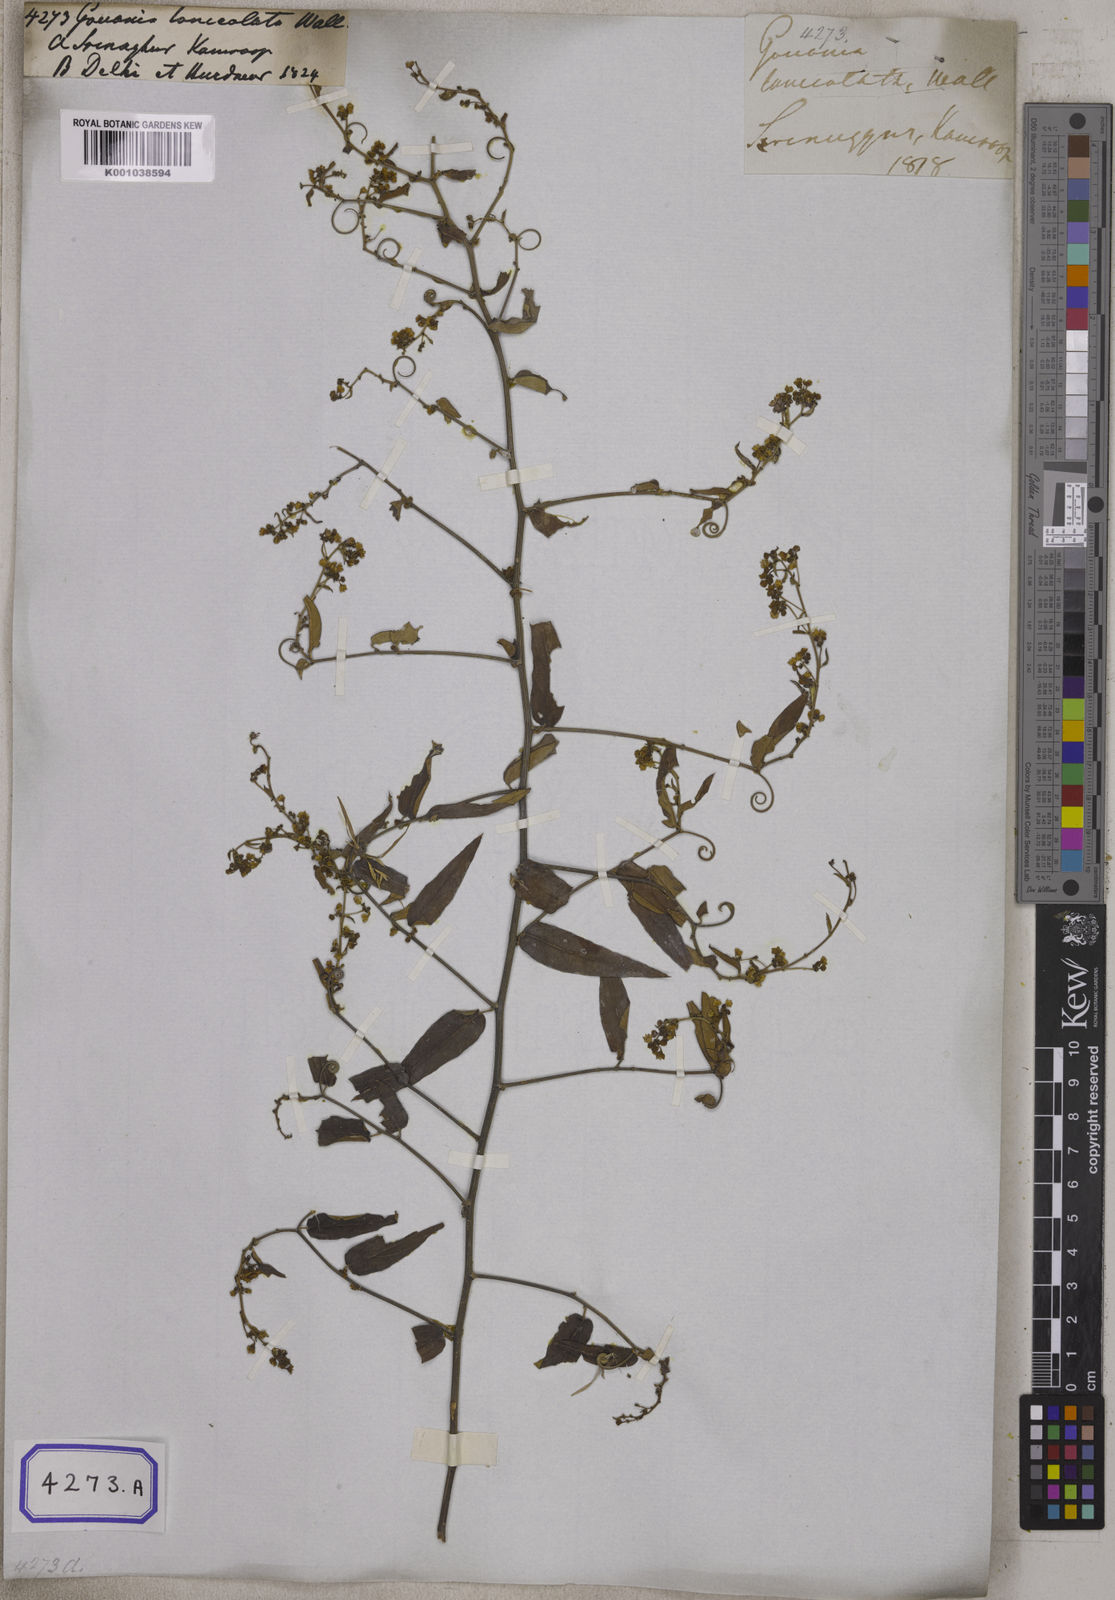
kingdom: Plantae
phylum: Tracheophyta
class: Magnoliopsida
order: Rosales
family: Rhamnaceae
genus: Helinus
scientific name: Helinus lanceolatus
